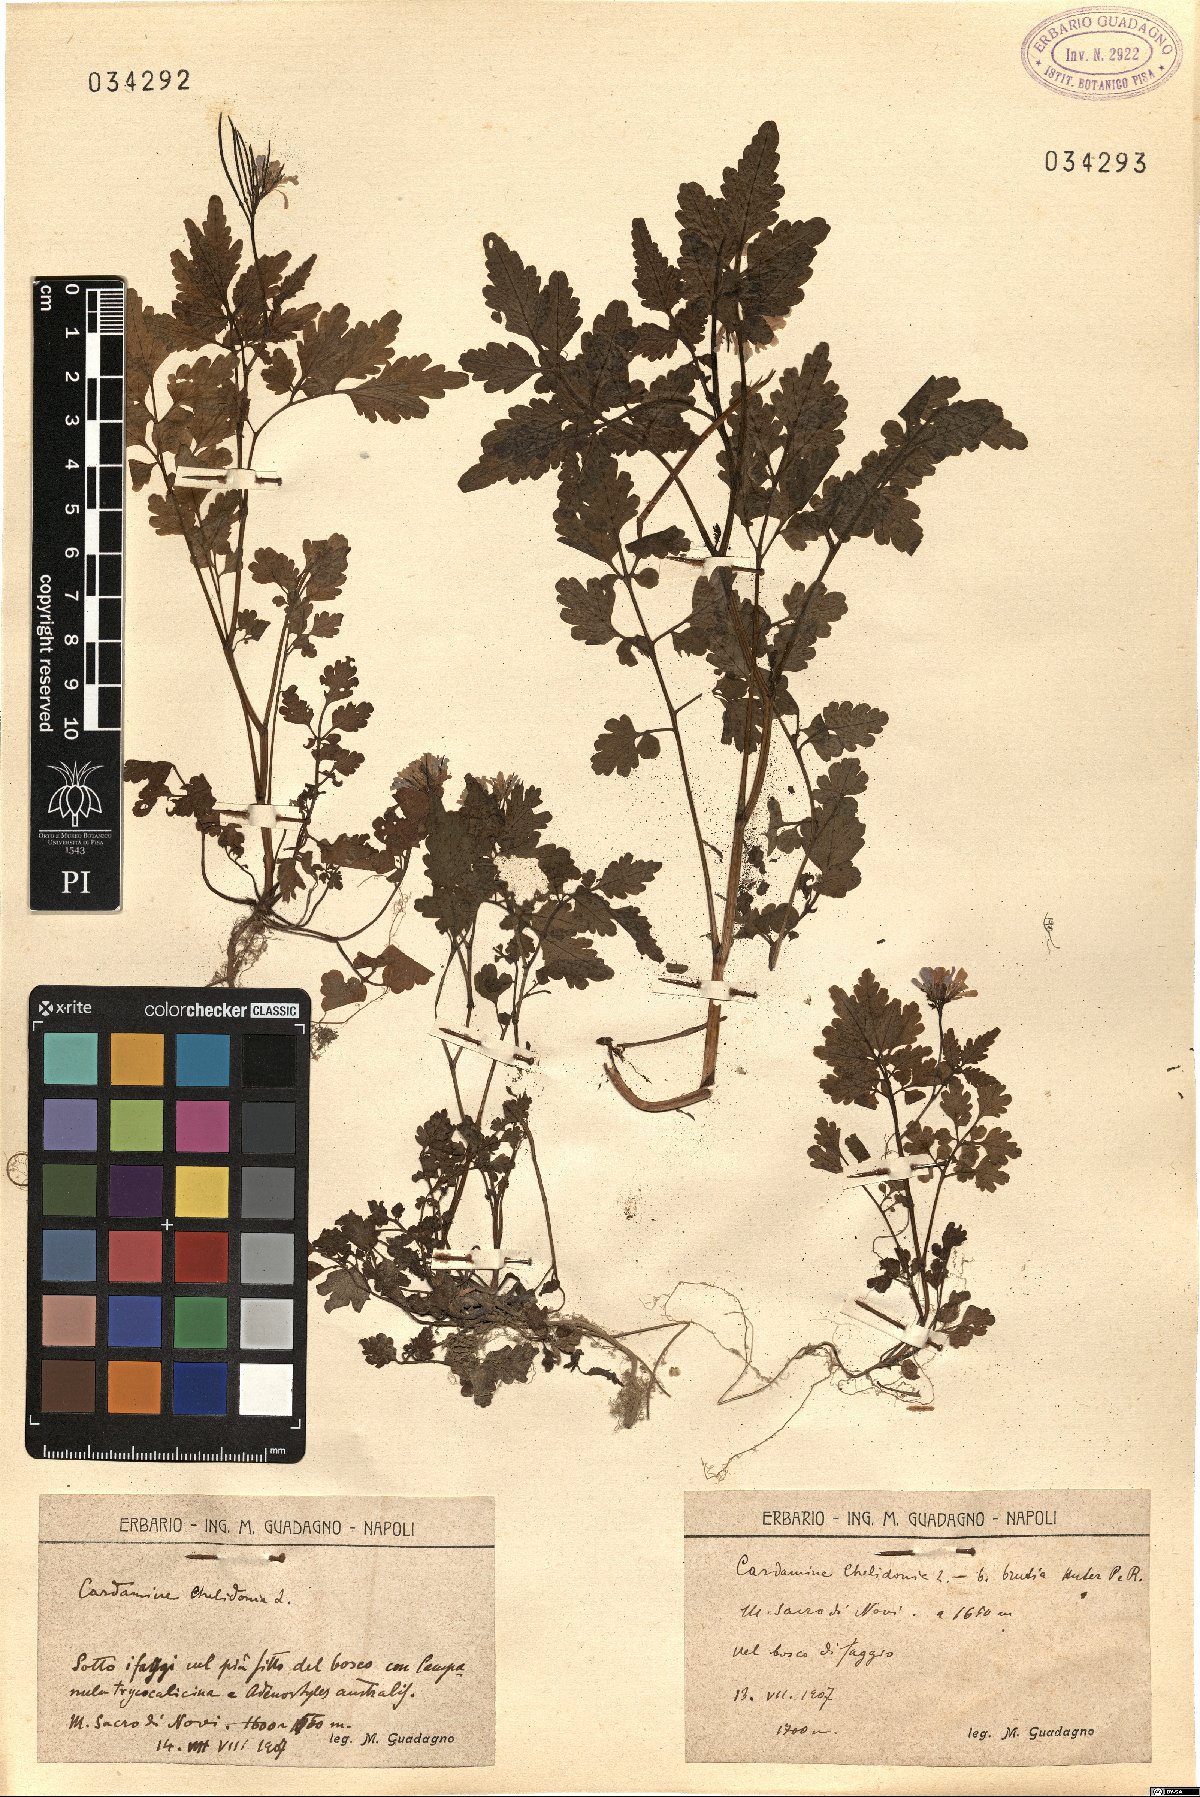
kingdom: Plantae
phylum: Tracheophyta
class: Magnoliopsida
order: Brassicales
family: Brassicaceae
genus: Cardamine
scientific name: Cardamine chelidonia
